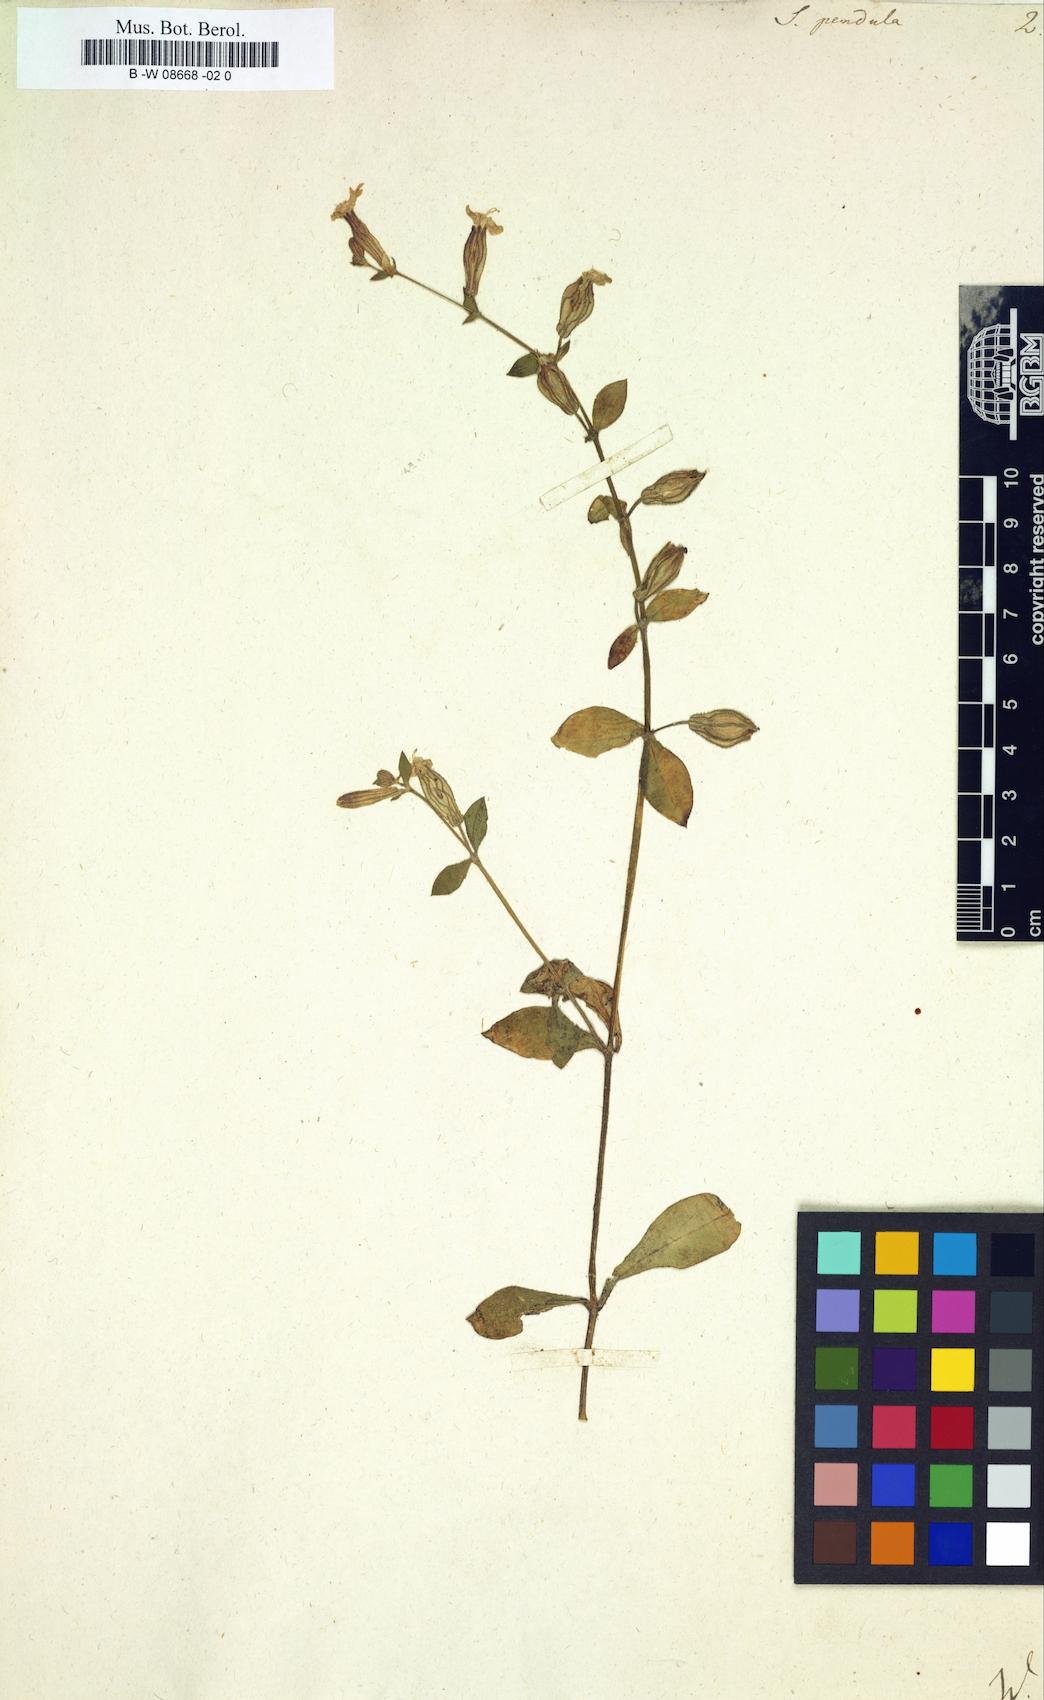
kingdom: Plantae
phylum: Tracheophyta
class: Magnoliopsida
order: Caryophyllales
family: Caryophyllaceae
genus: Silene
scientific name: Silene pendula
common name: Nodding catchfly
